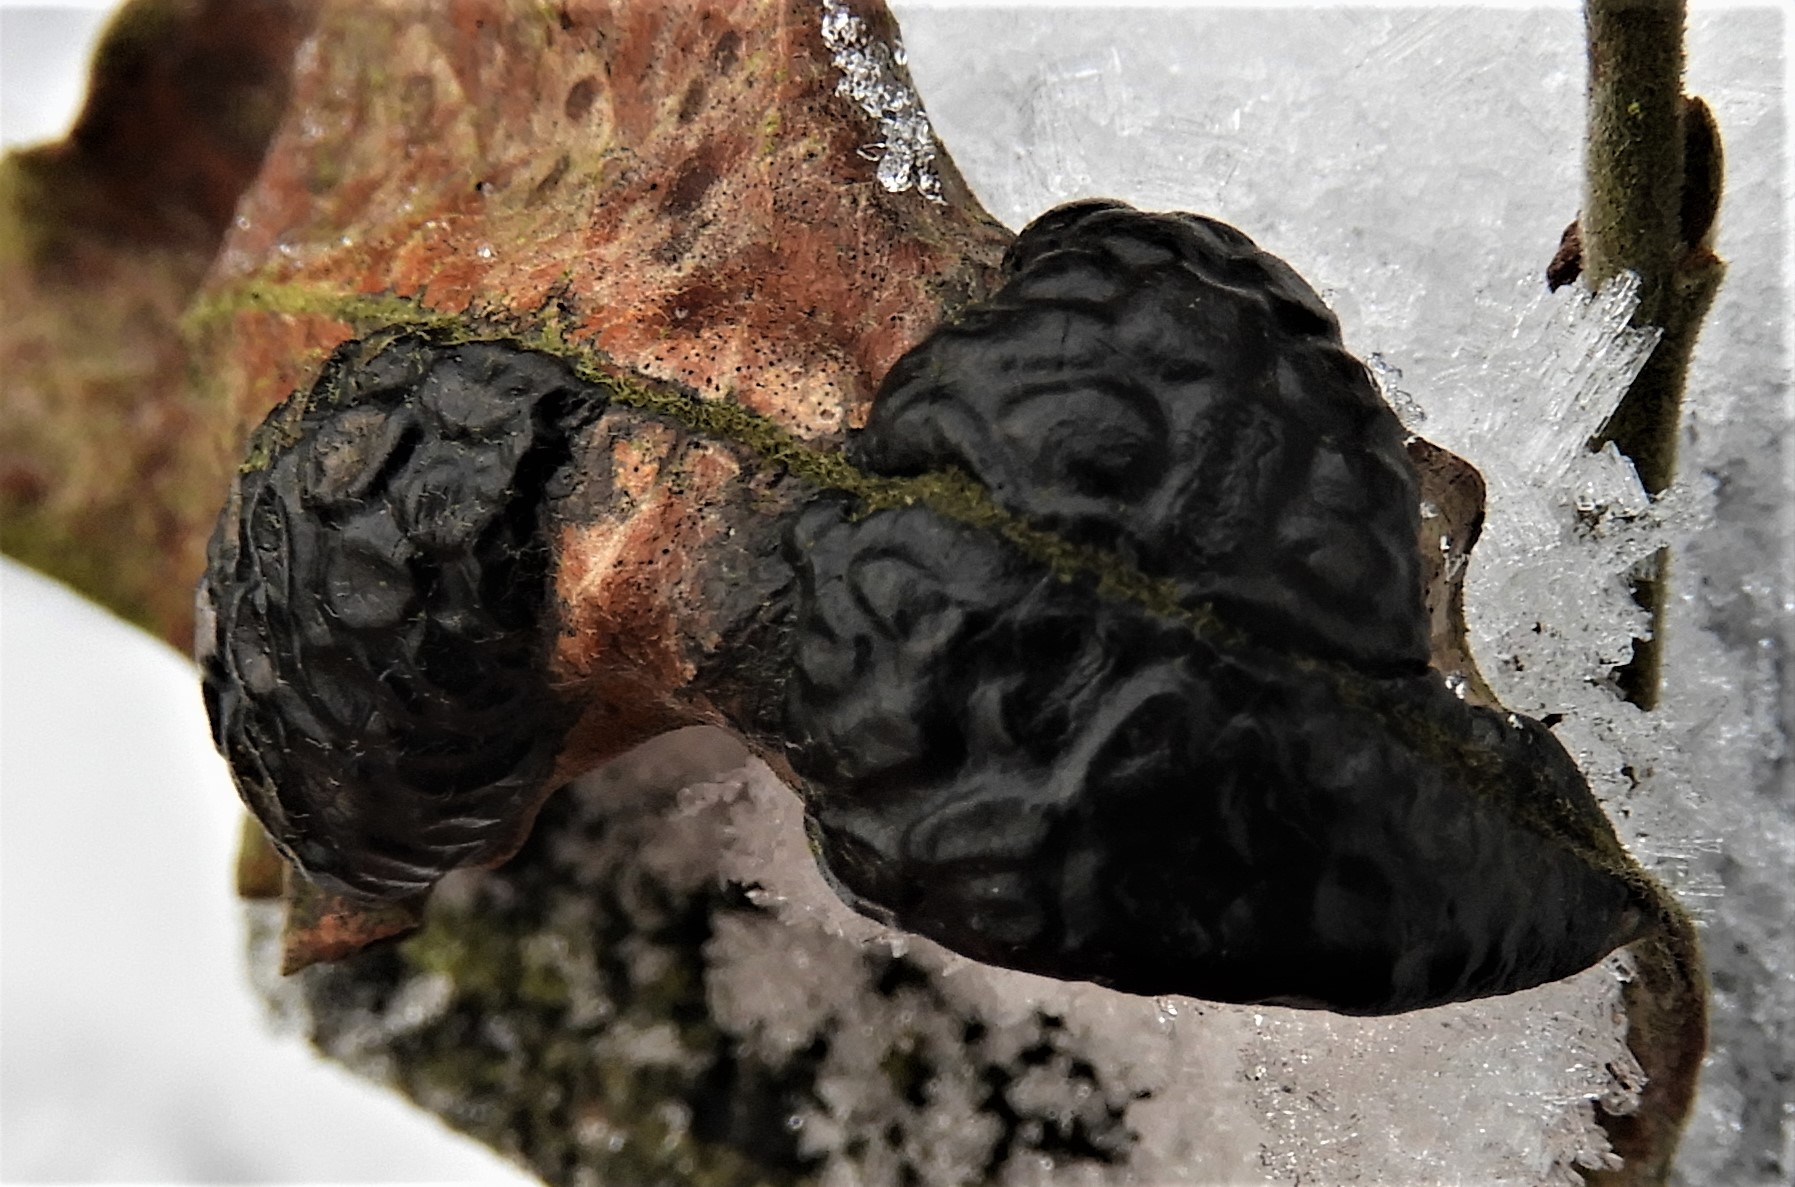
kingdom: Fungi
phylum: Ascomycota
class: Leotiomycetes
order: Rhytismatales
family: Rhytismataceae
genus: Rhytisma
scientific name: Rhytisma salicinum
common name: pile-rynkeplet
